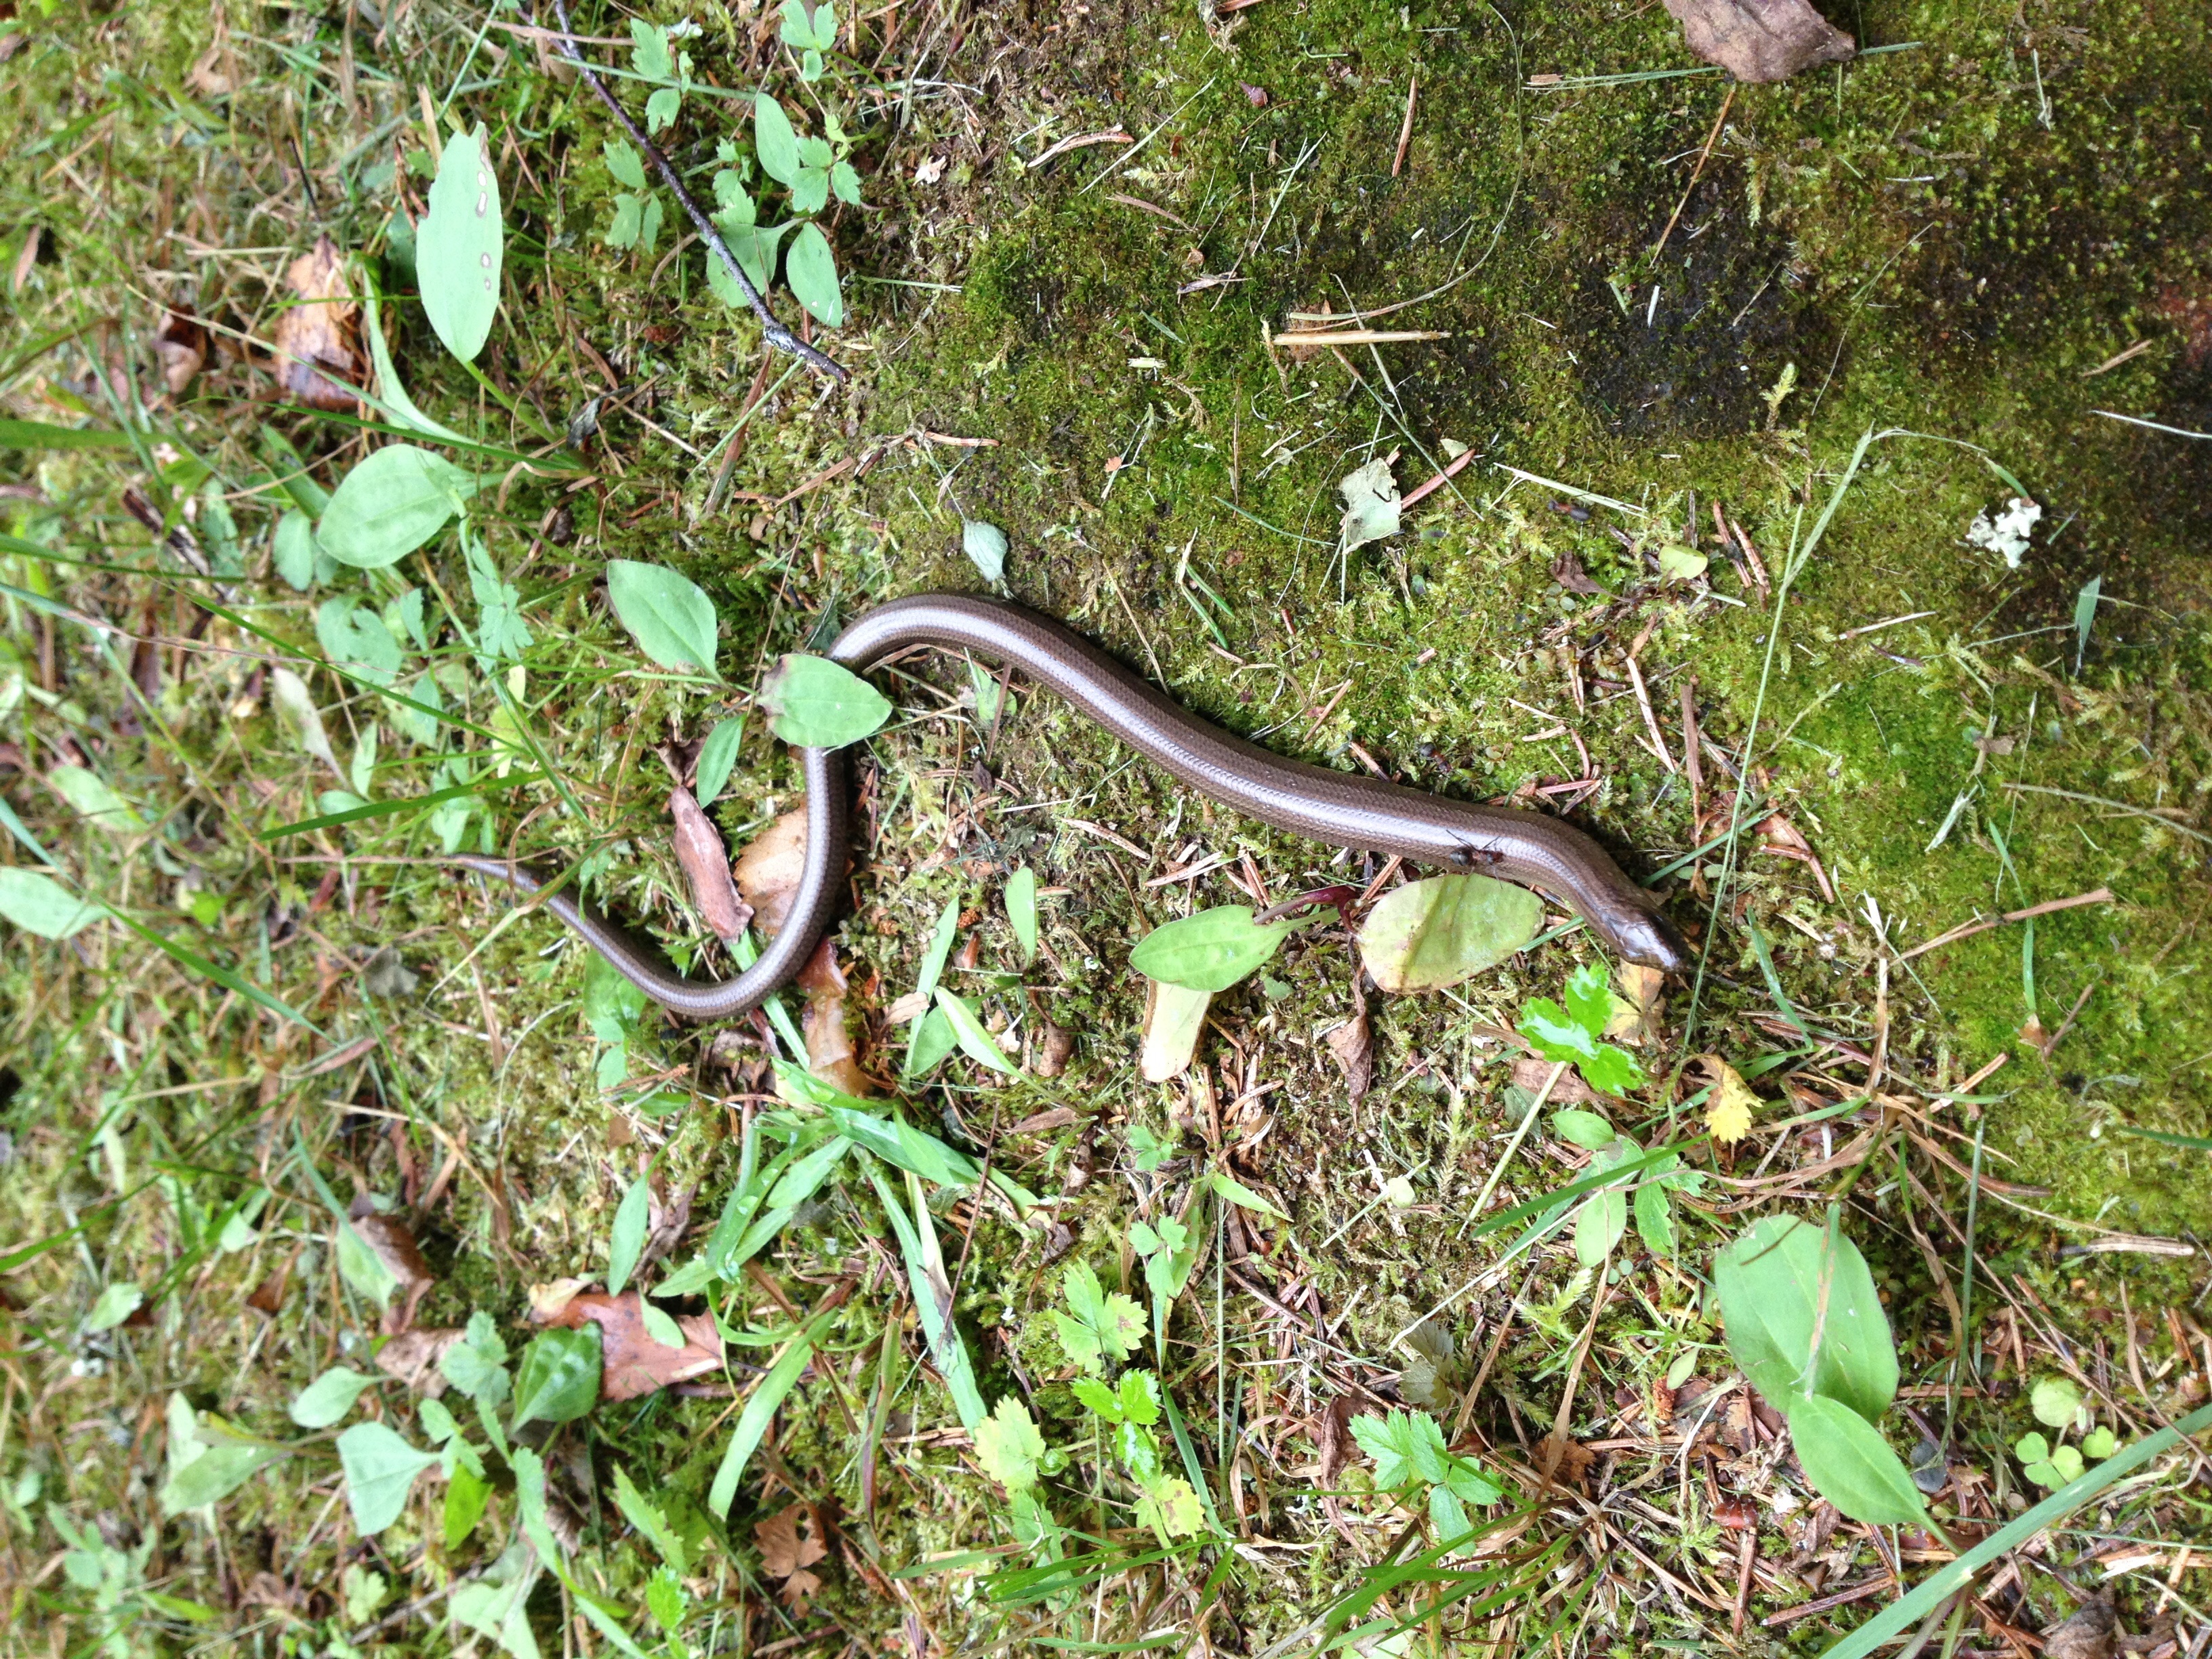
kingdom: Animalia
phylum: Chordata
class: Squamata
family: Anguidae
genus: Anguis
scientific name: Anguis colchica
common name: Slow worm
